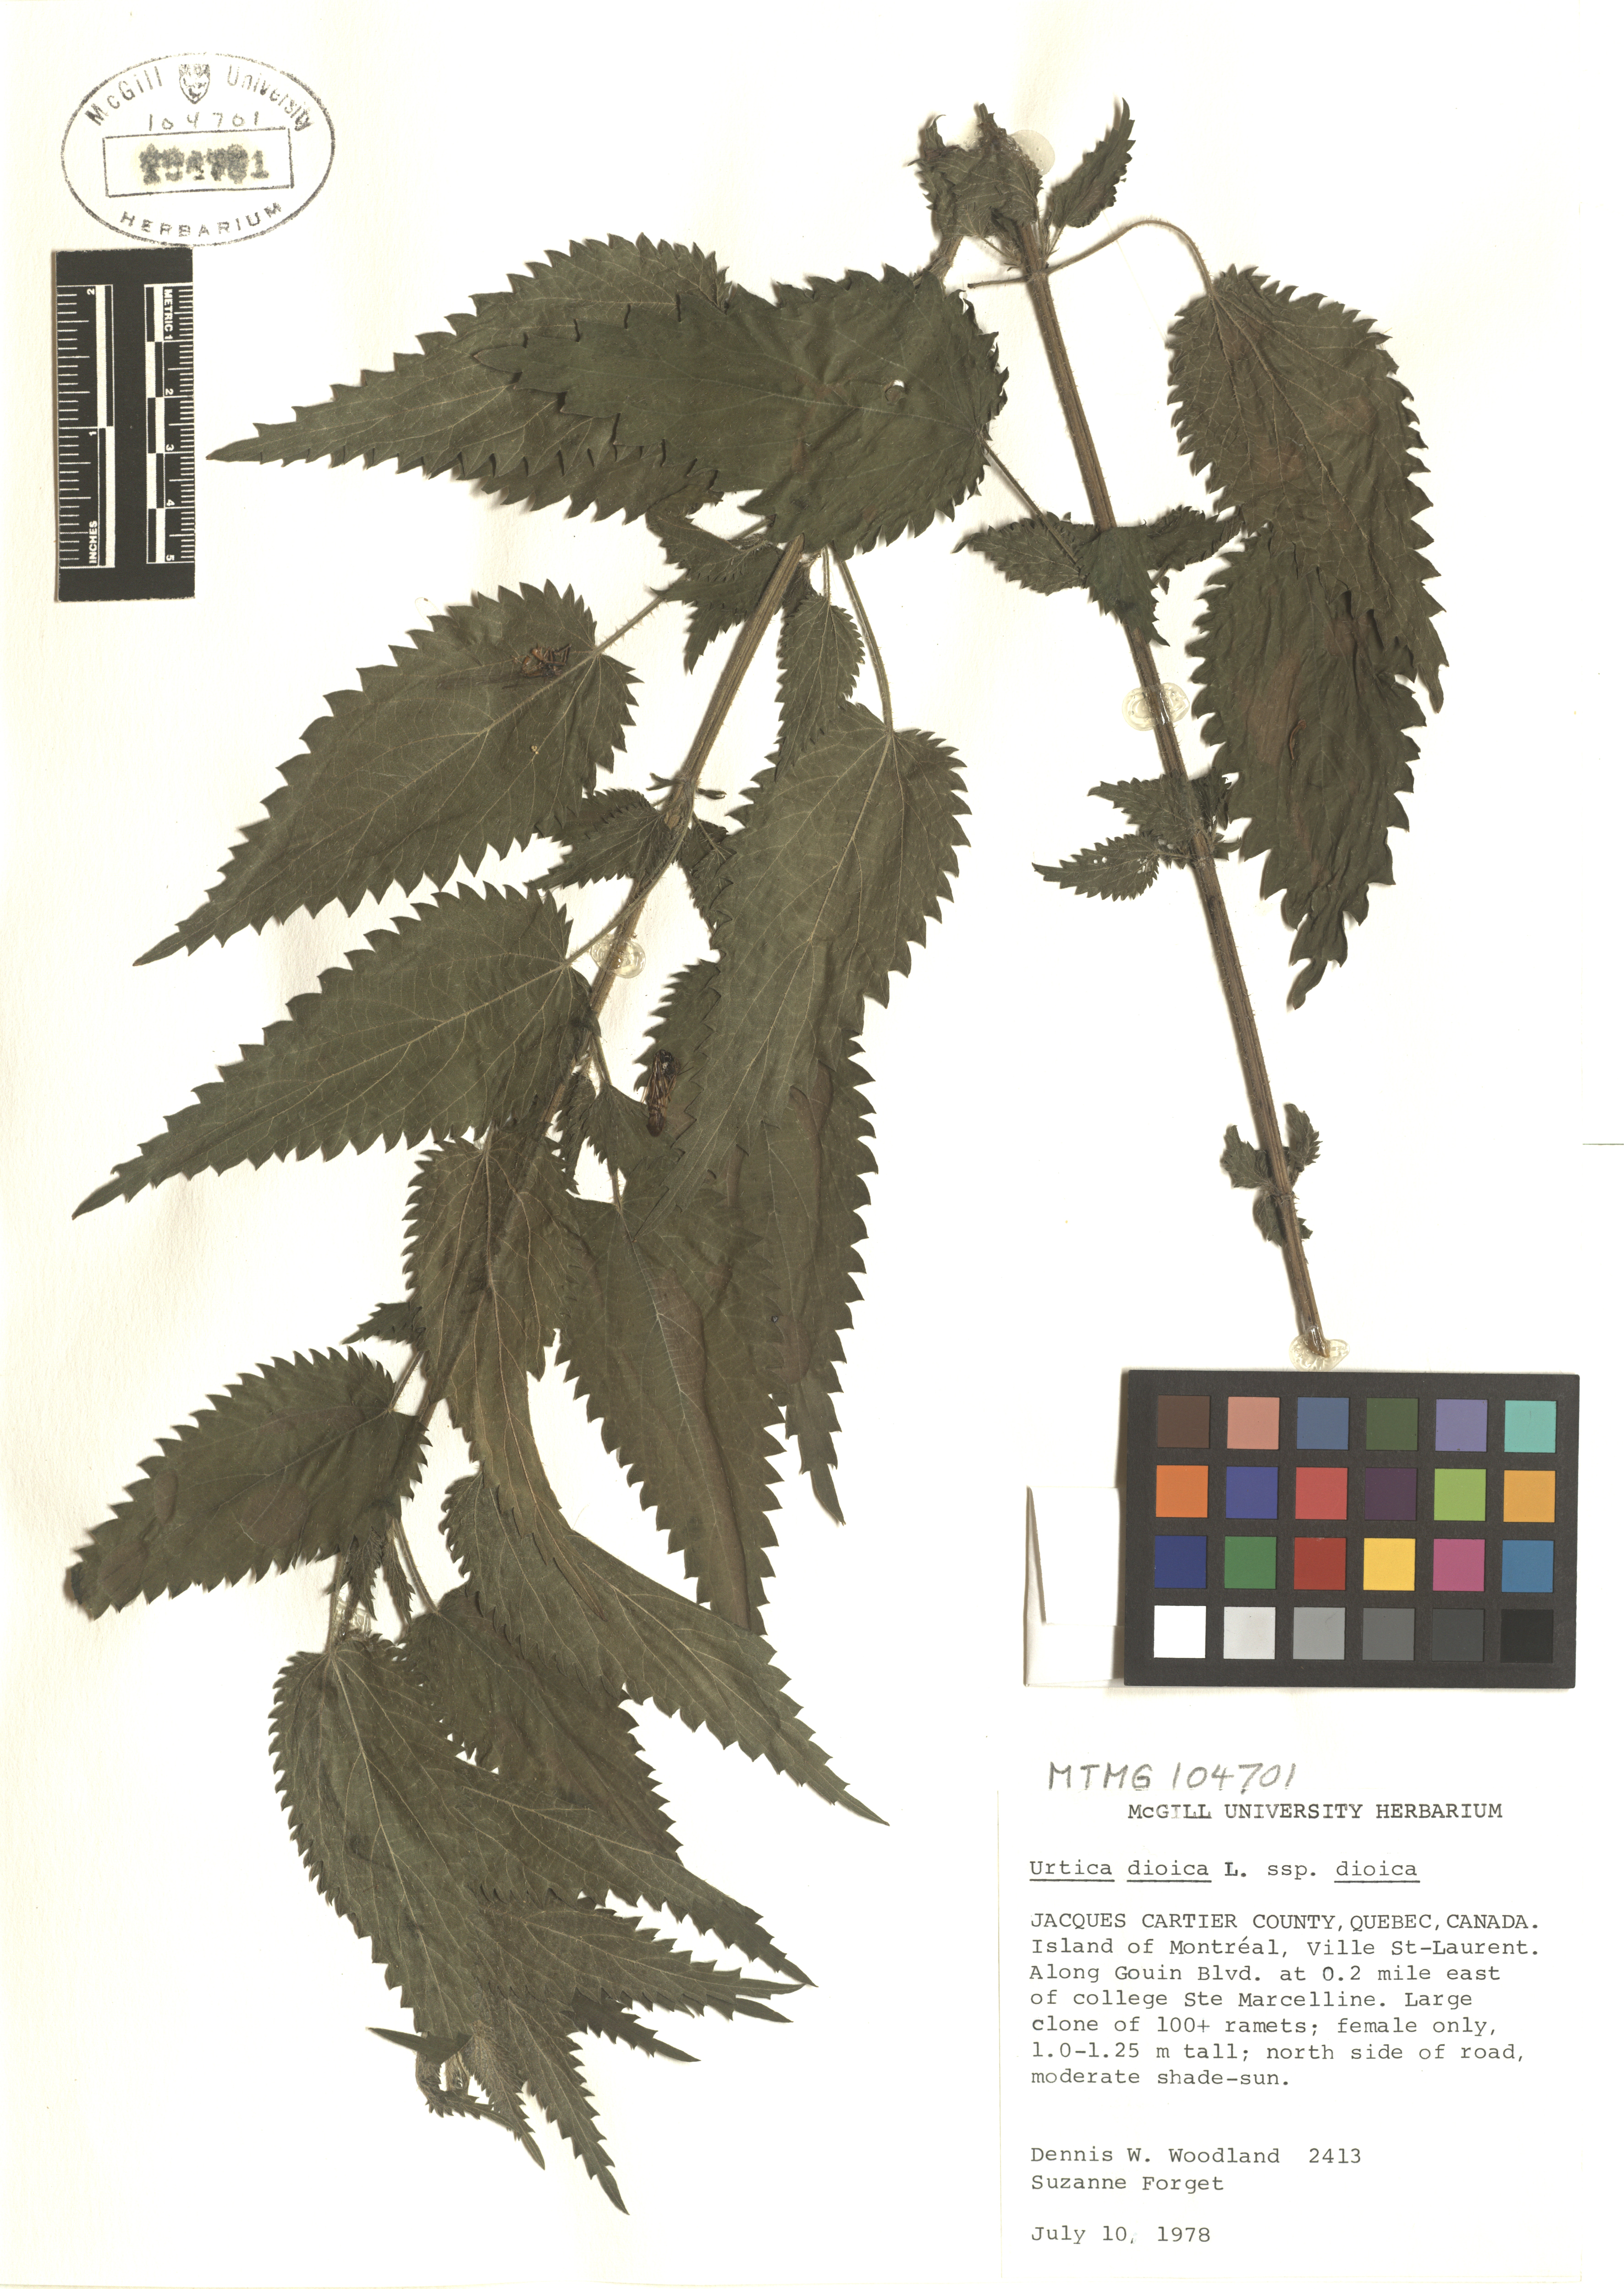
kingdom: Plantae
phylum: Tracheophyta
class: Magnoliopsida
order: Rosales
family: Urticaceae
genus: Urtica
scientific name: Urtica dioica
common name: Common nettle
